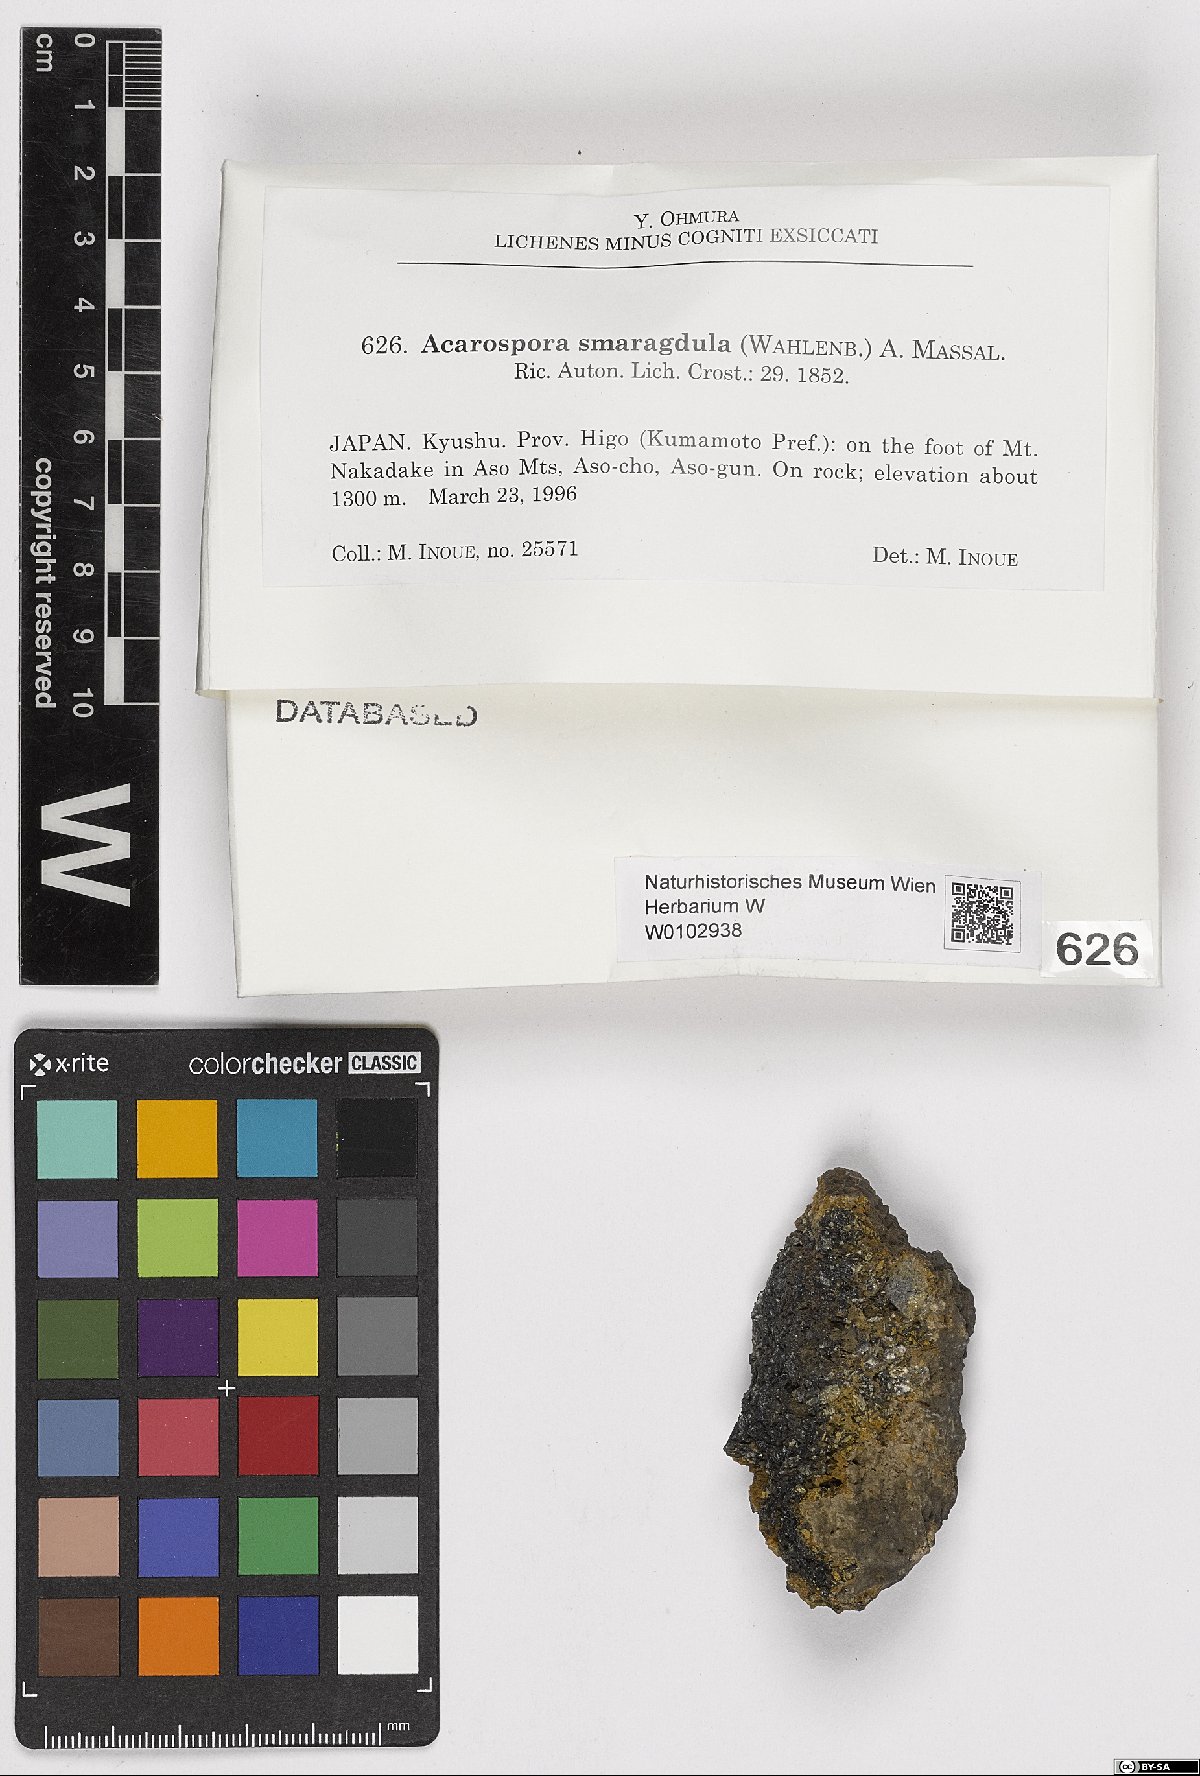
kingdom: Fungi
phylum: Ascomycota
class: Lecanoromycetes
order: Acarosporales
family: Acarosporaceae
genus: Myriospora
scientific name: Myriospora smaragdula
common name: Little emerald lichen
